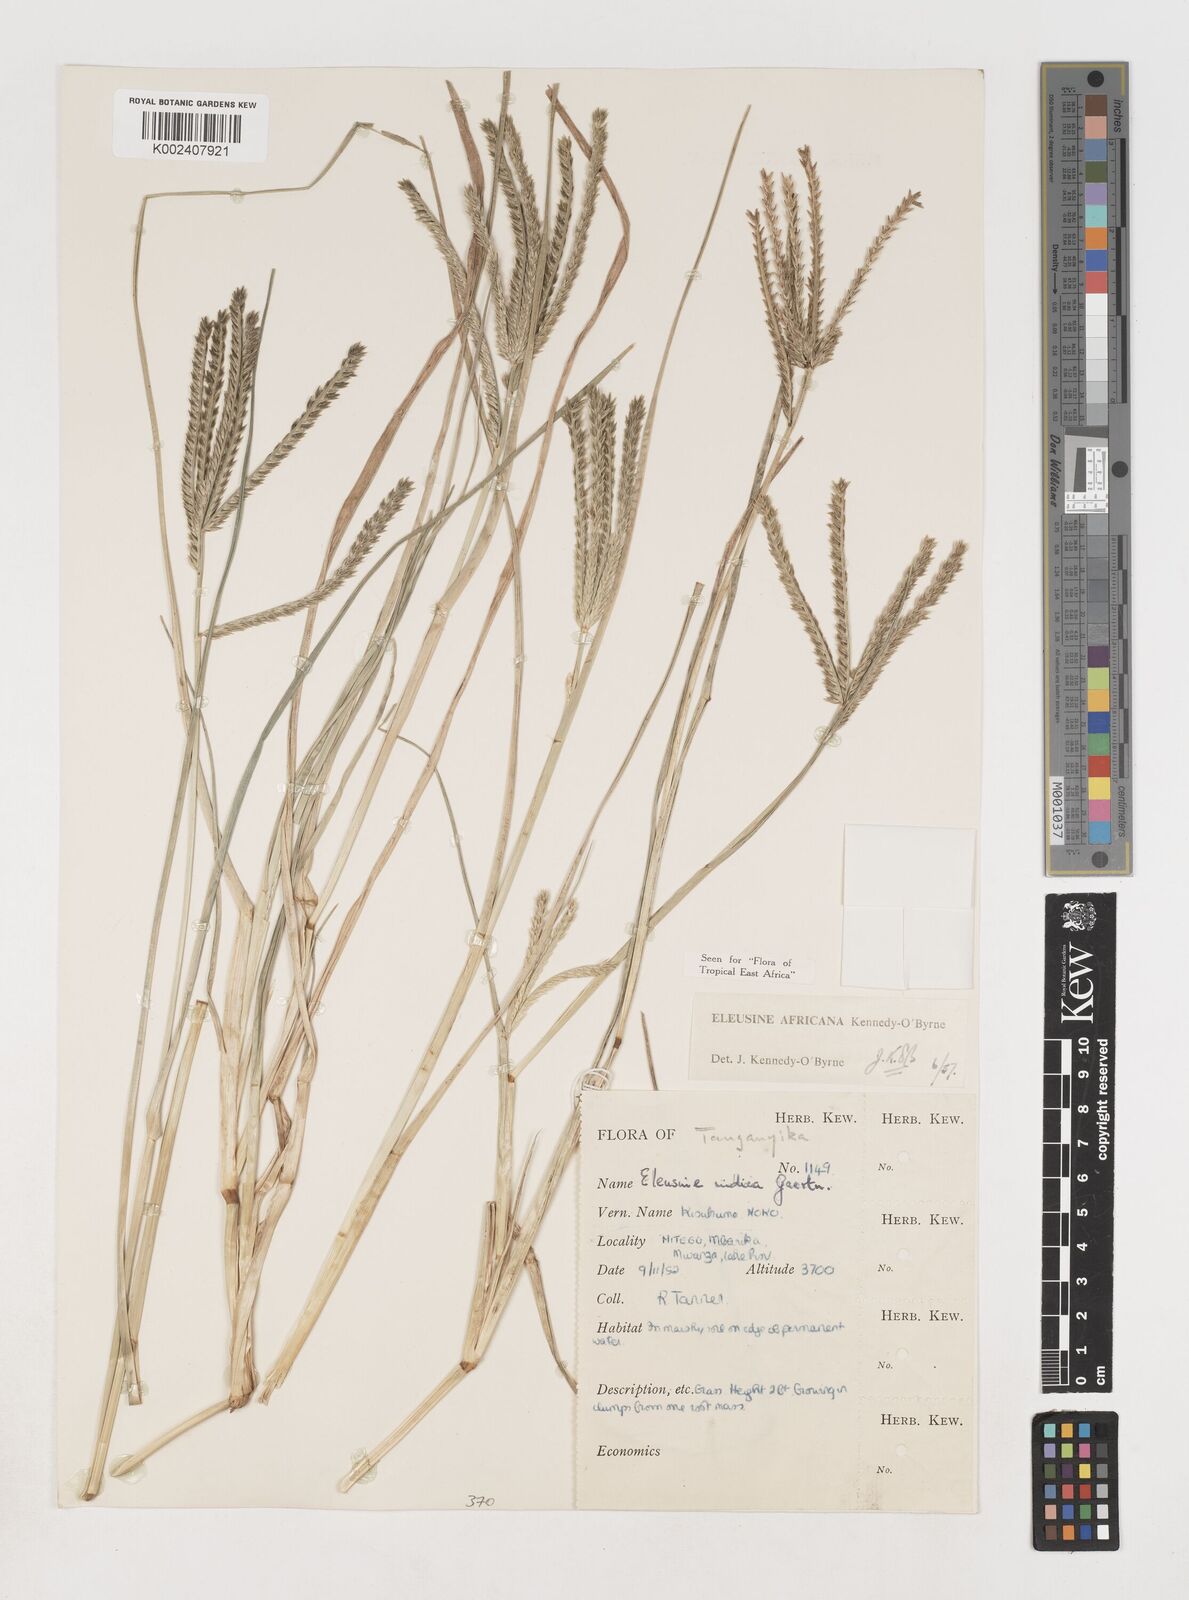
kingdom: Plantae
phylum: Tracheophyta
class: Liliopsida
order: Poales
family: Poaceae
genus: Eleusine
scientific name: Eleusine africana
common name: Wild african finger millet
